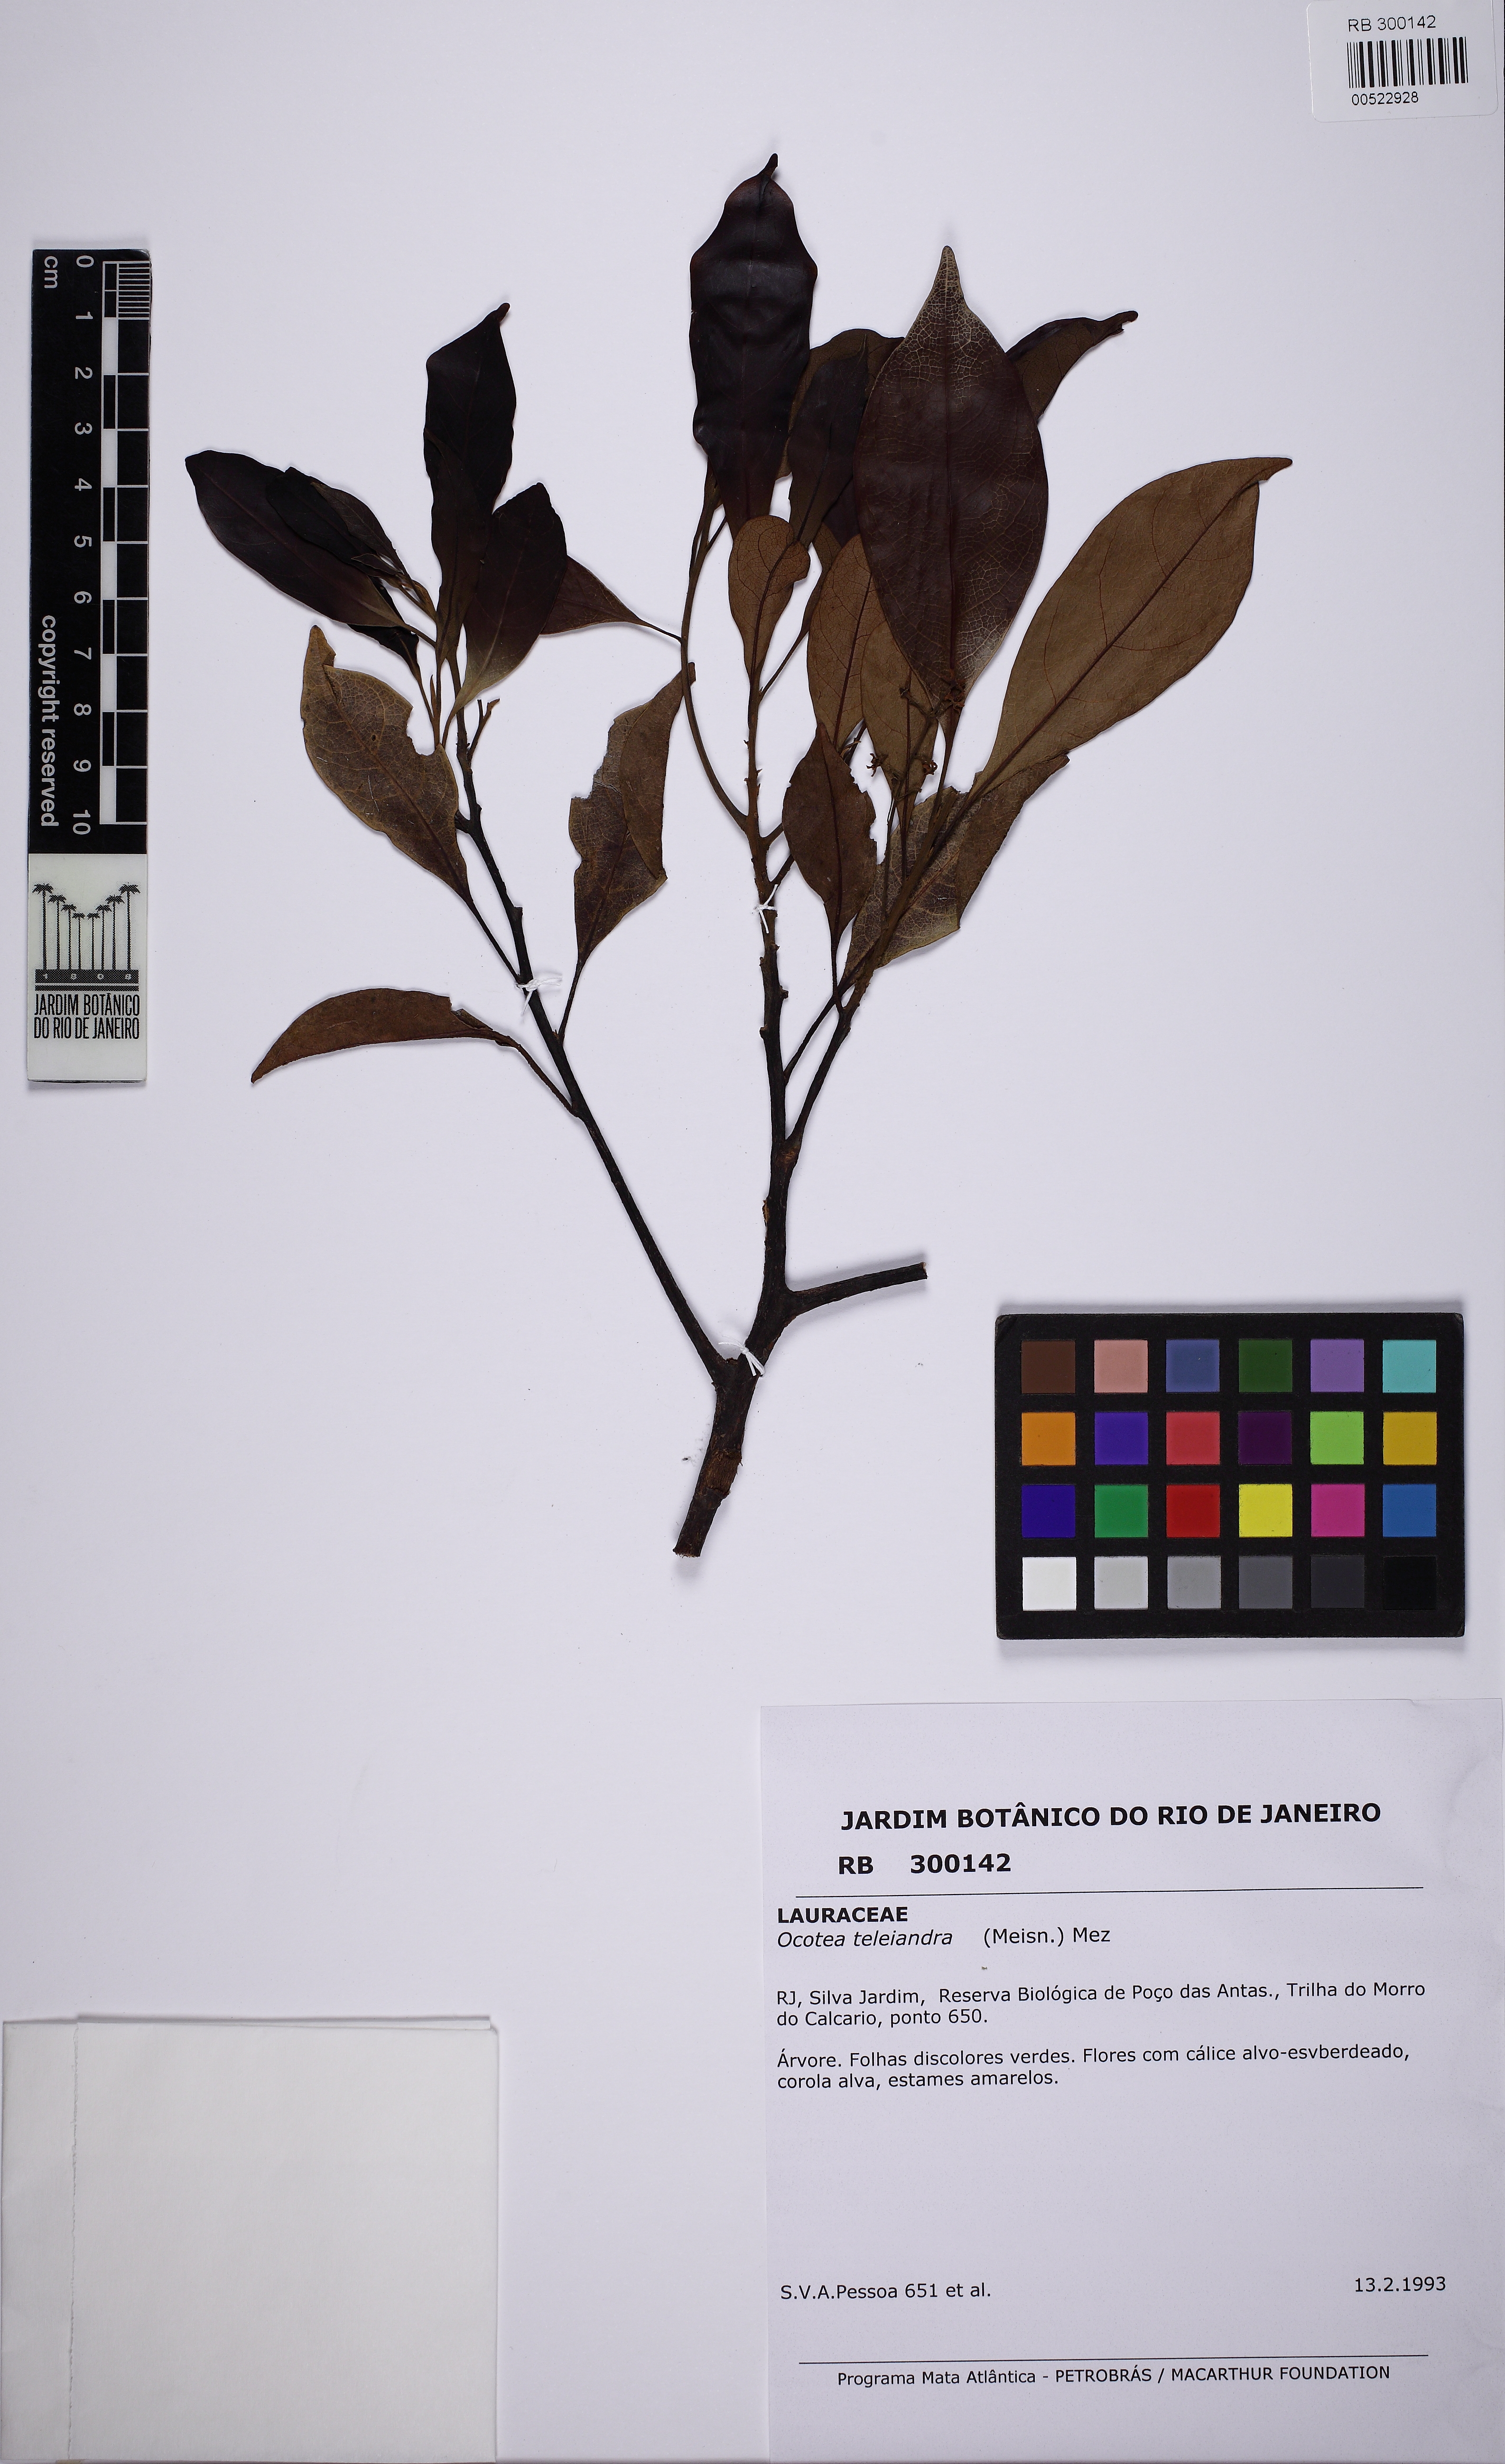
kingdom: Plantae
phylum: Tracheophyta
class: Magnoliopsida
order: Laurales
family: Lauraceae
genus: Ocotea
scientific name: Ocotea teleiandra
